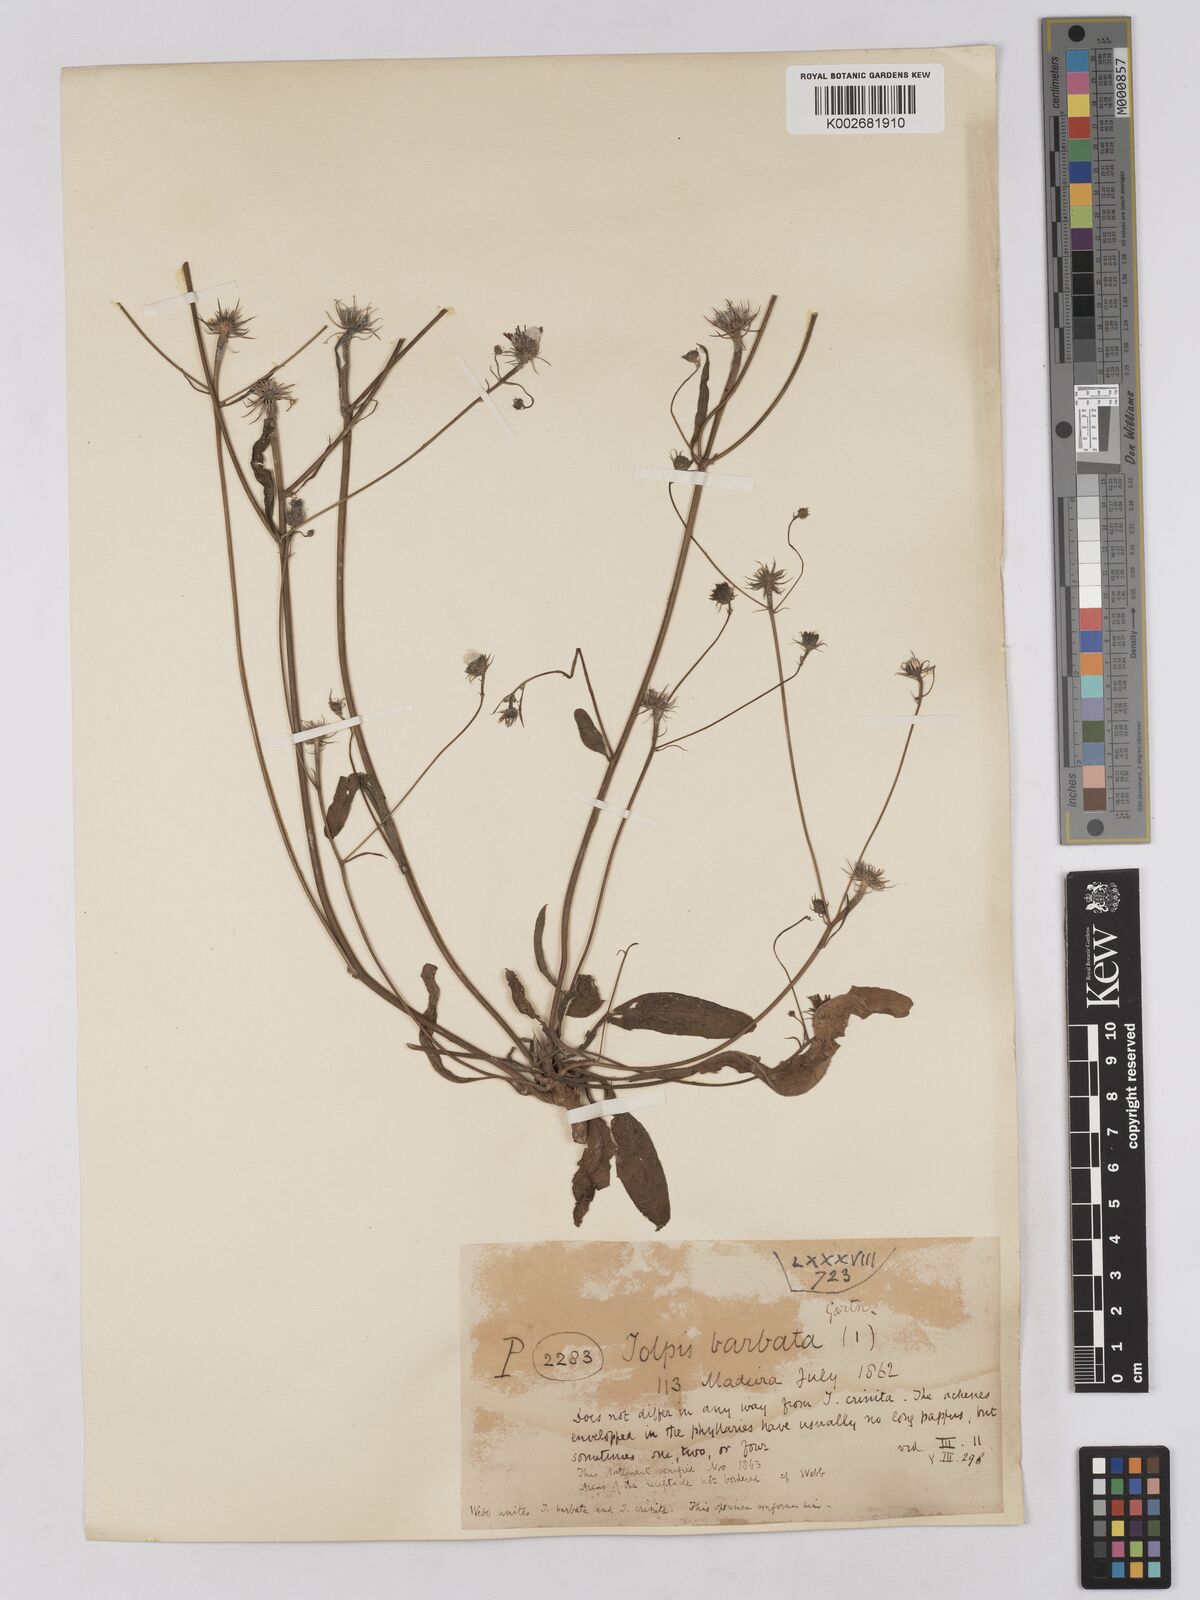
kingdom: Plantae
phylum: Tracheophyta
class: Magnoliopsida
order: Asterales
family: Asteraceae
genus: Tolpis
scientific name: Tolpis barbata
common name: Yellow hawkweed
